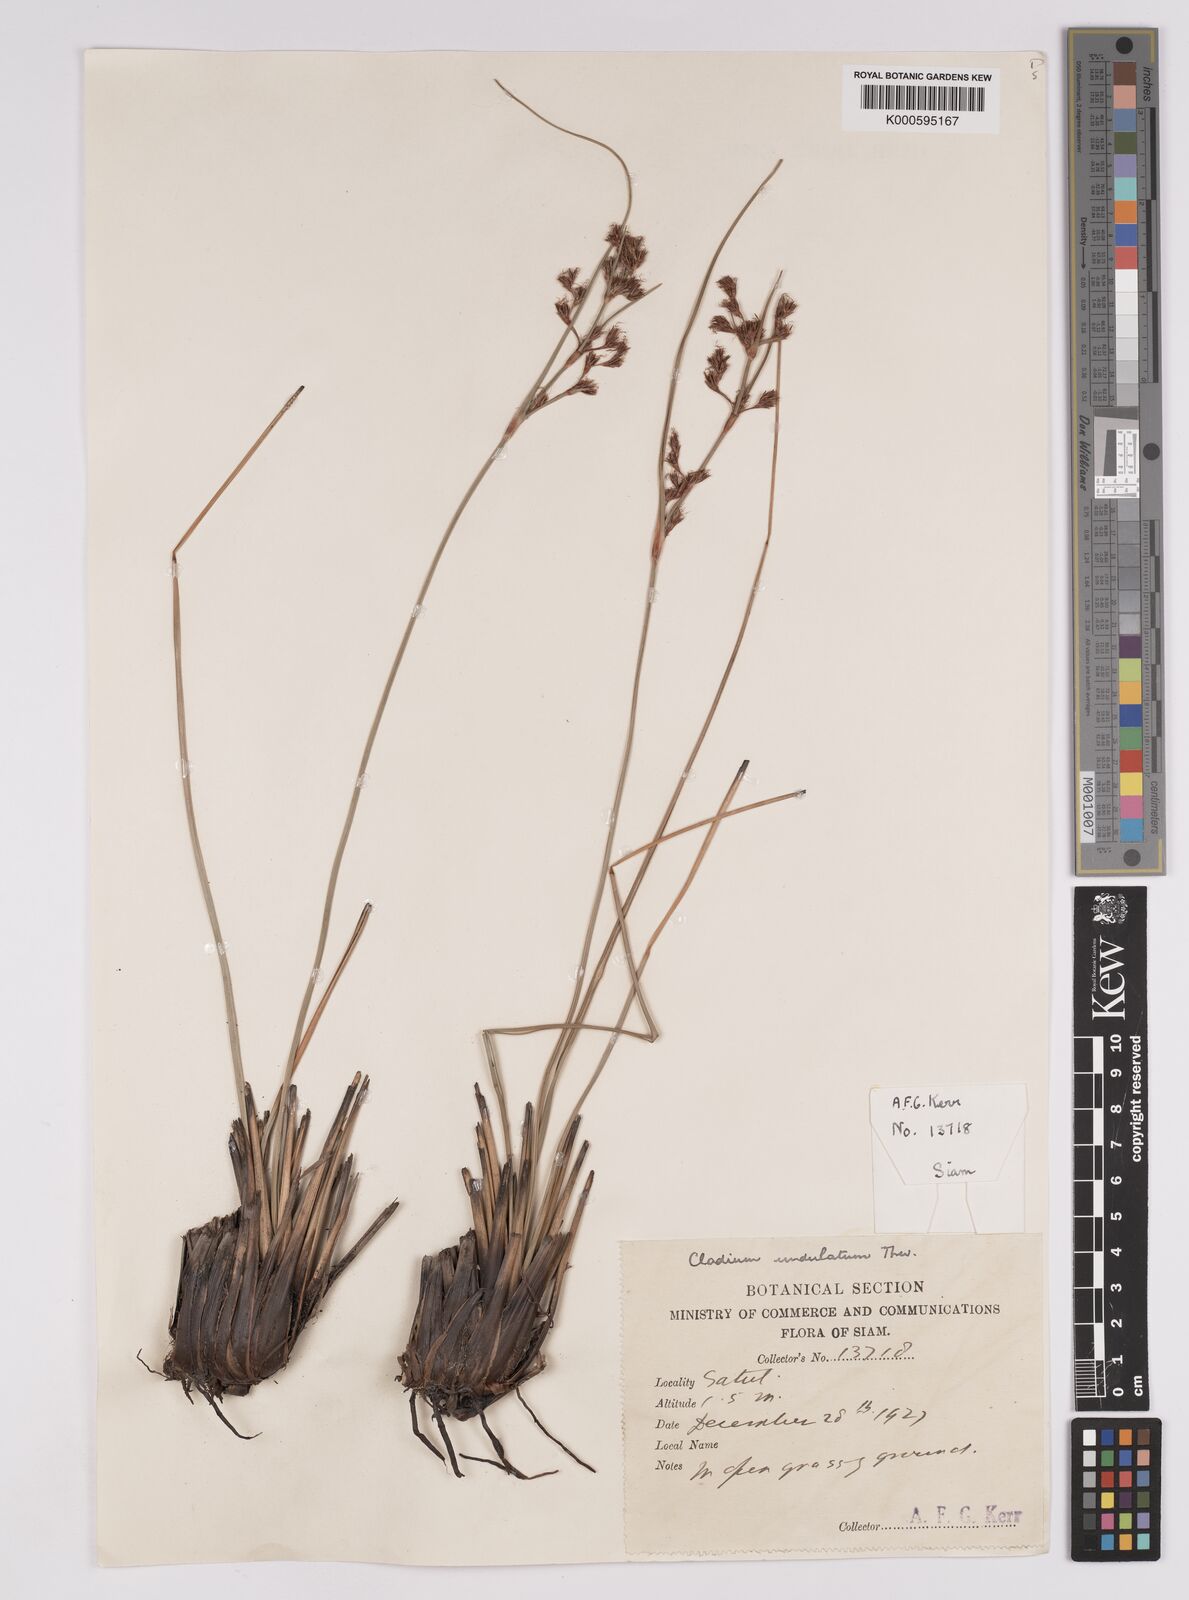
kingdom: Plantae
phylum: Tracheophyta
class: Liliopsida
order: Poales
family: Cyperaceae
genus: Anthelepis
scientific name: Anthelepis undulata
